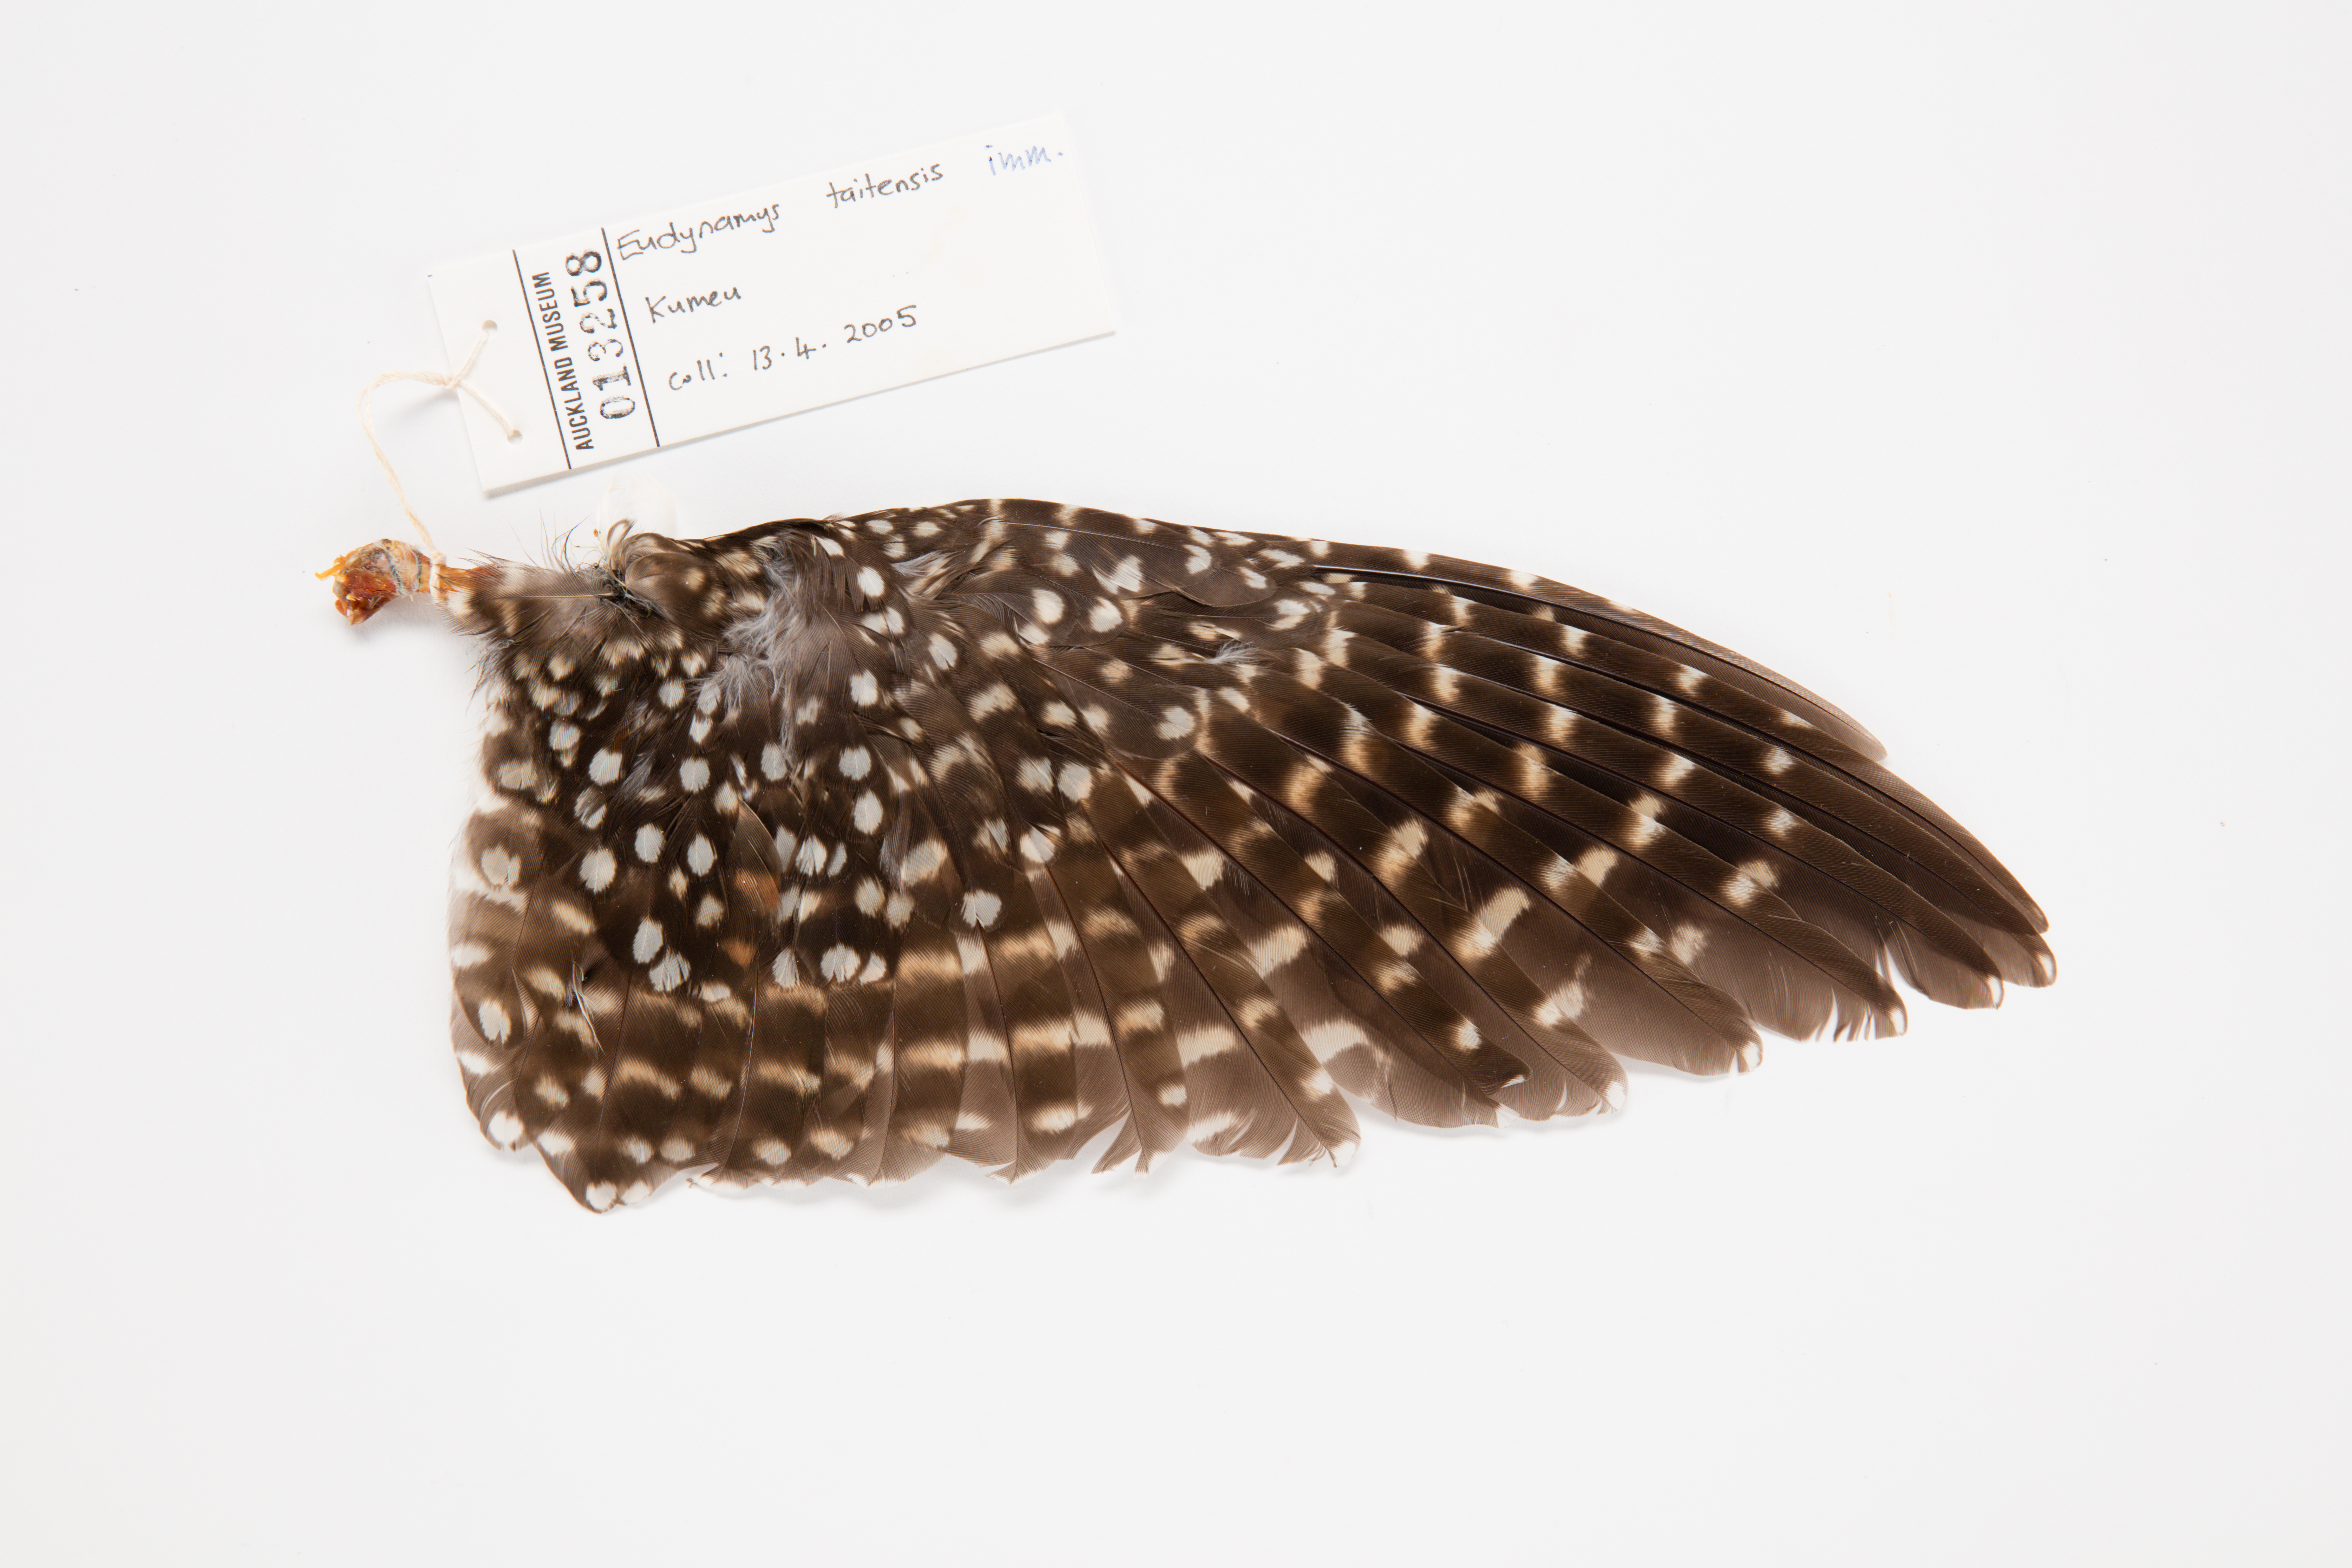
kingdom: Animalia
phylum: Chordata
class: Aves
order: Cuculiformes
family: Cuculidae
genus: Urodynamis
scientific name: Urodynamis taitensis
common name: Long-tailed koel
